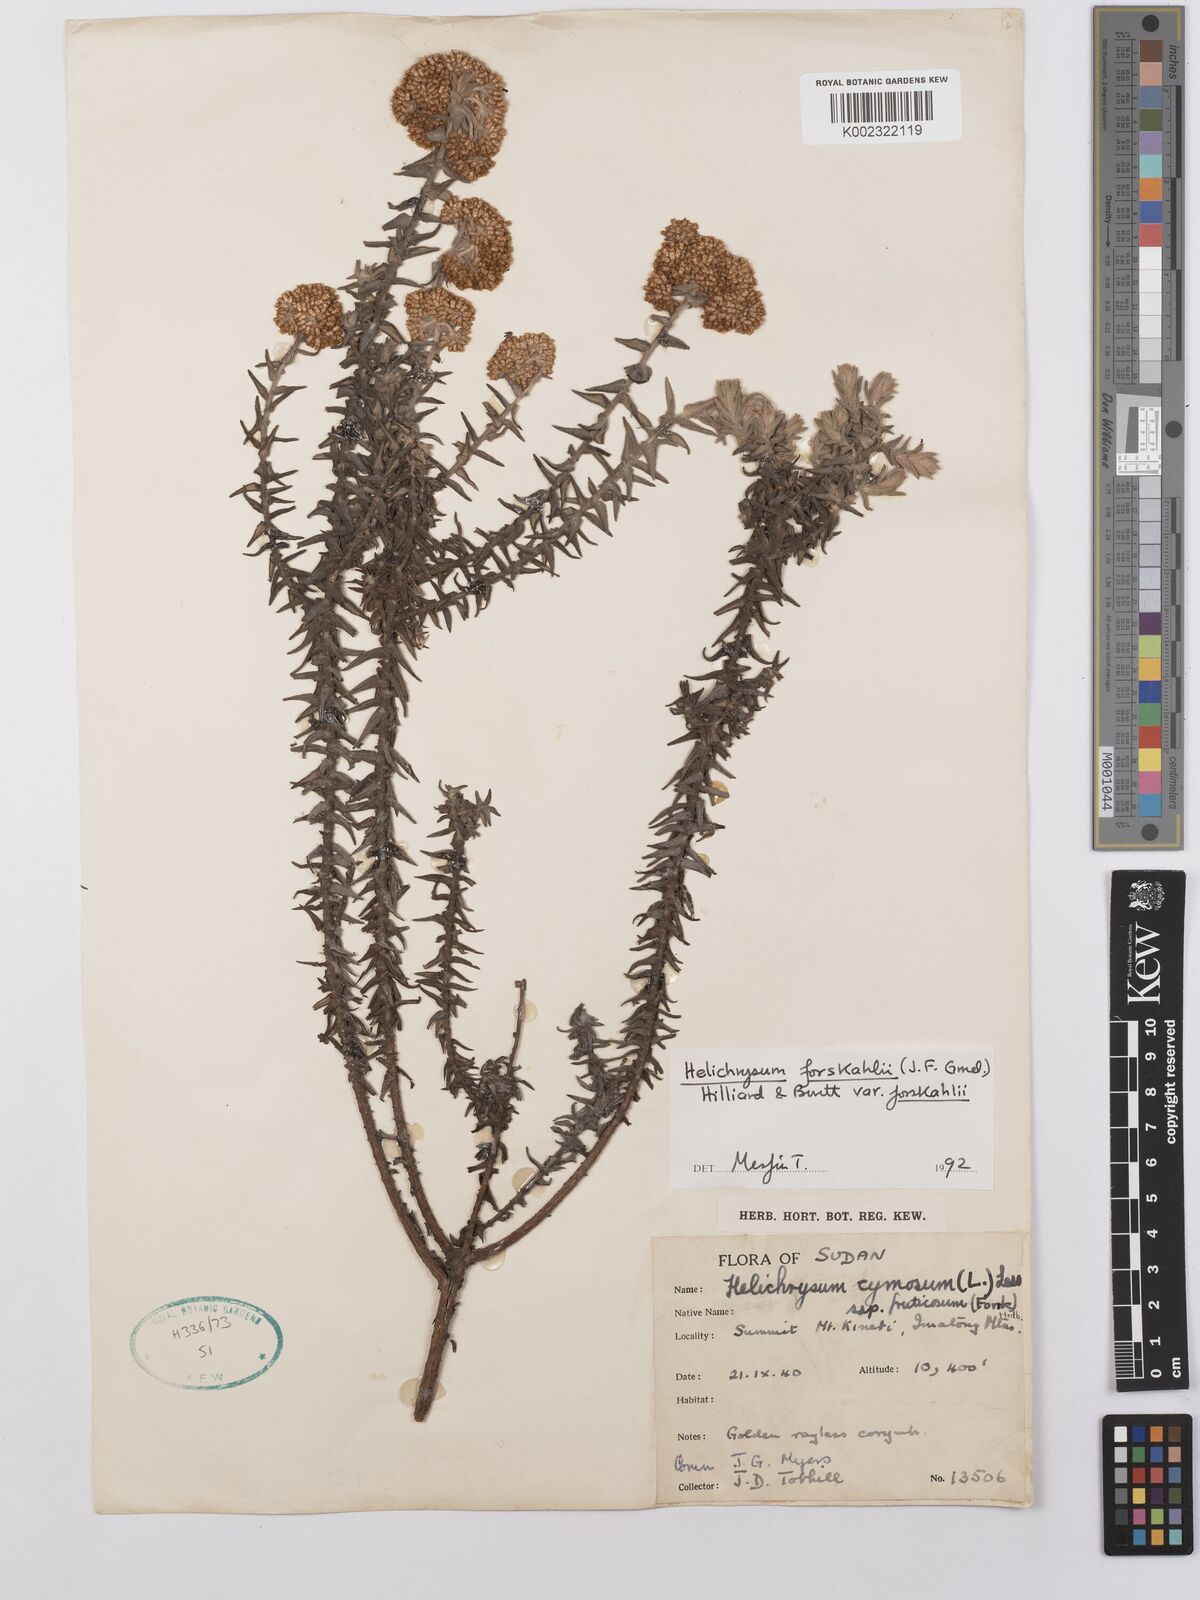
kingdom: Plantae
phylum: Tracheophyta
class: Magnoliopsida
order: Asterales
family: Asteraceae
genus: Helichrysum
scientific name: Helichrysum forskahlii
